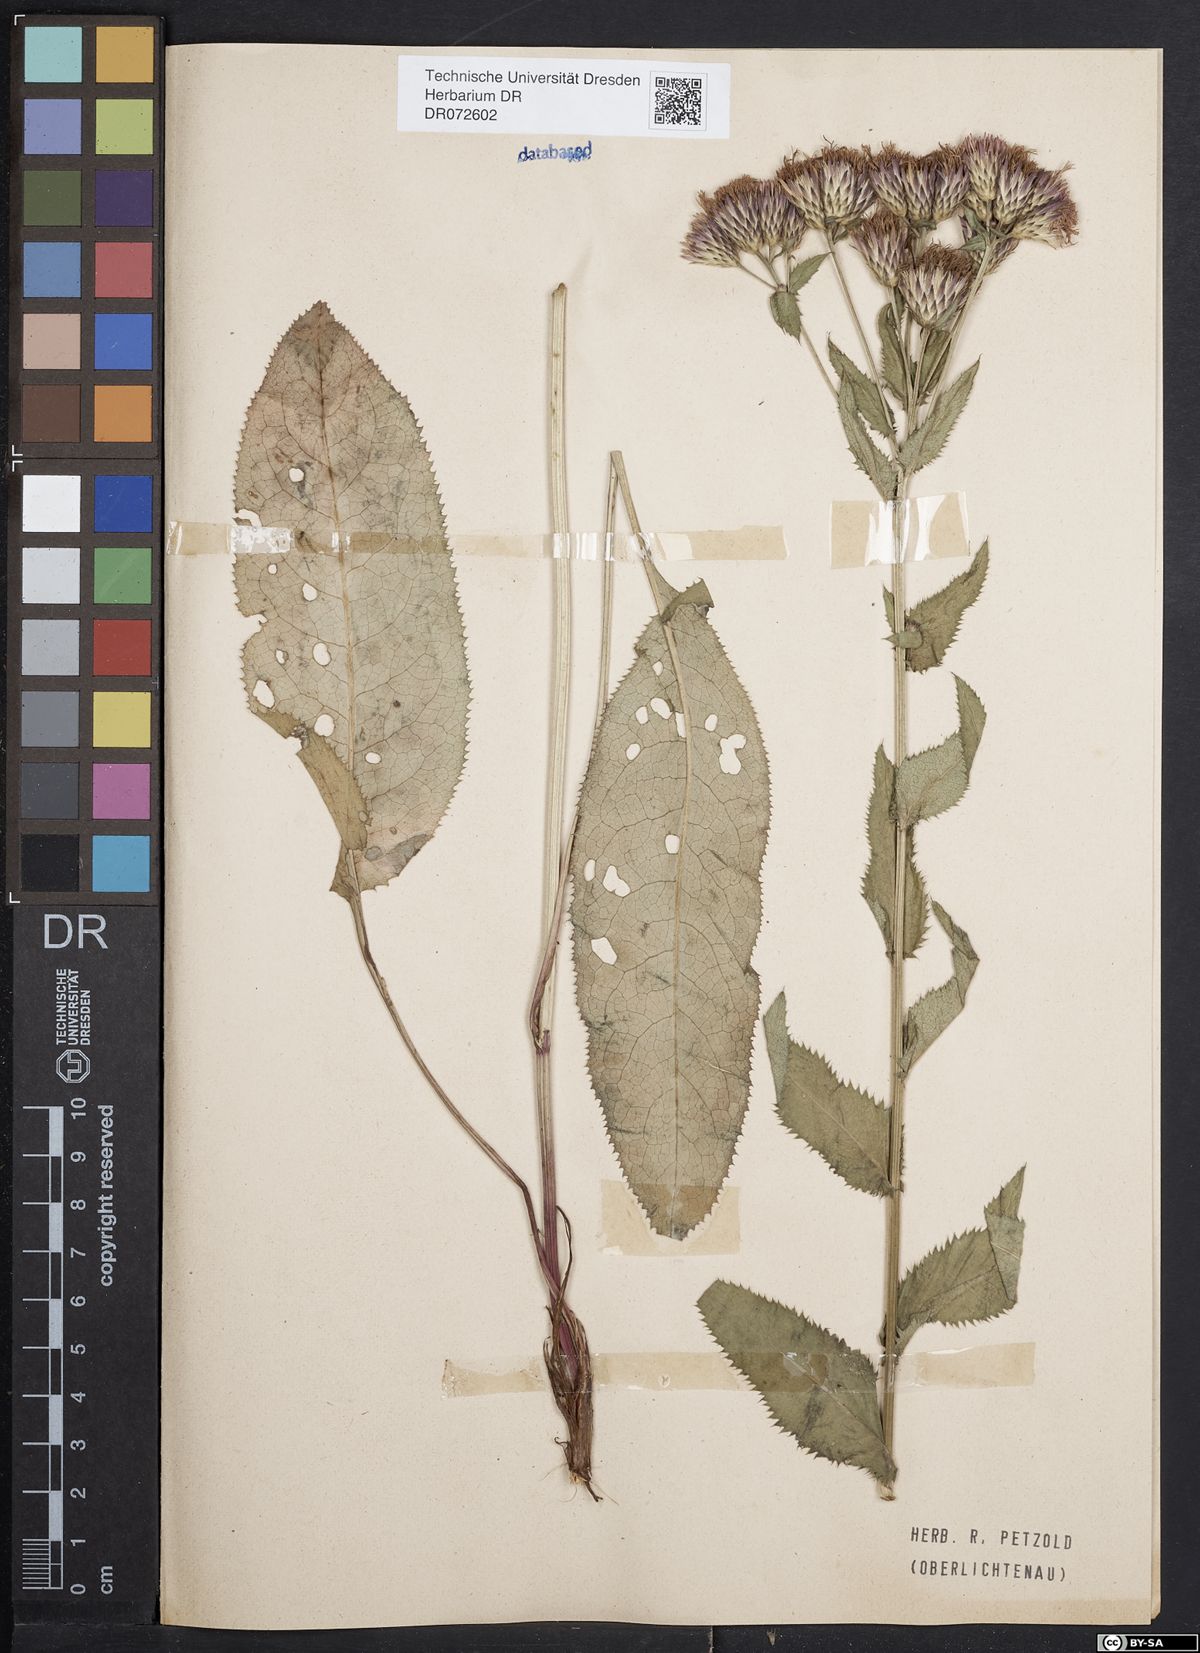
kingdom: Plantae
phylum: Tracheophyta
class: Magnoliopsida
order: Asterales
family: Asteraceae
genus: Serratula
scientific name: Serratula tinctoria
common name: Saw-wort
